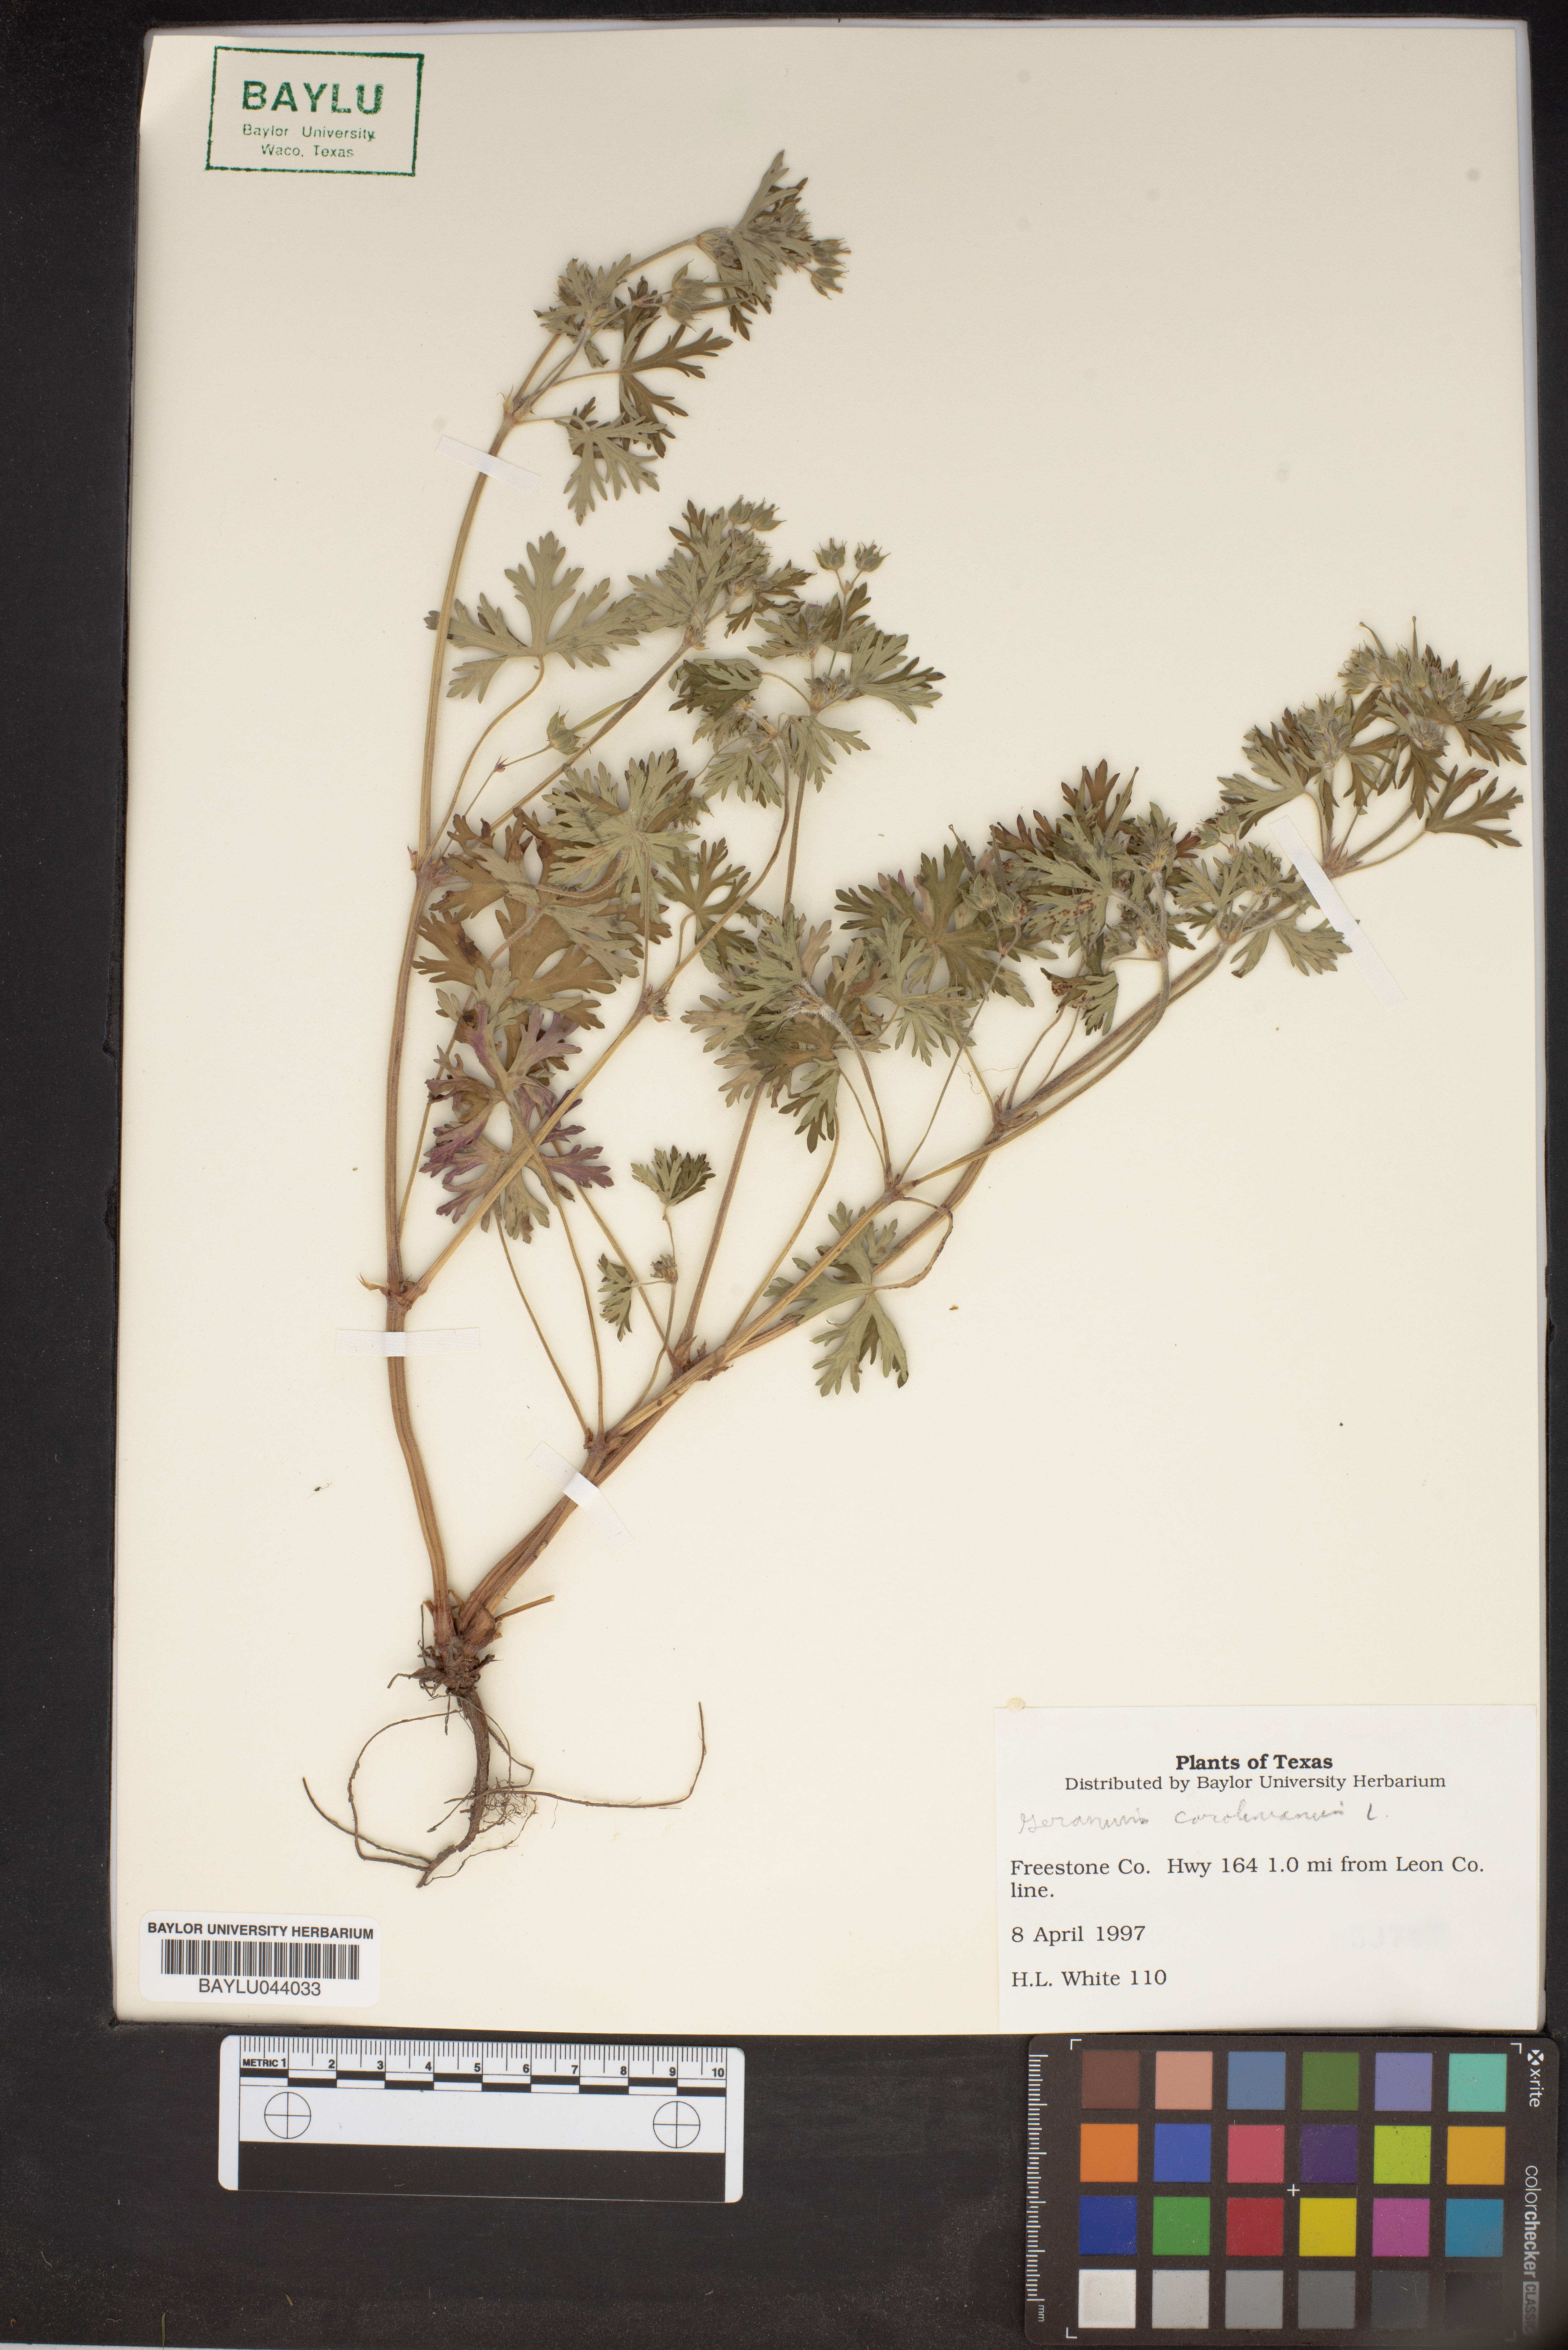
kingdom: Plantae
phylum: Tracheophyta
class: Magnoliopsida
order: Geraniales
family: Geraniaceae
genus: Geranium
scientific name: Geranium carolinianum
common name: Carolina crane's-bill
